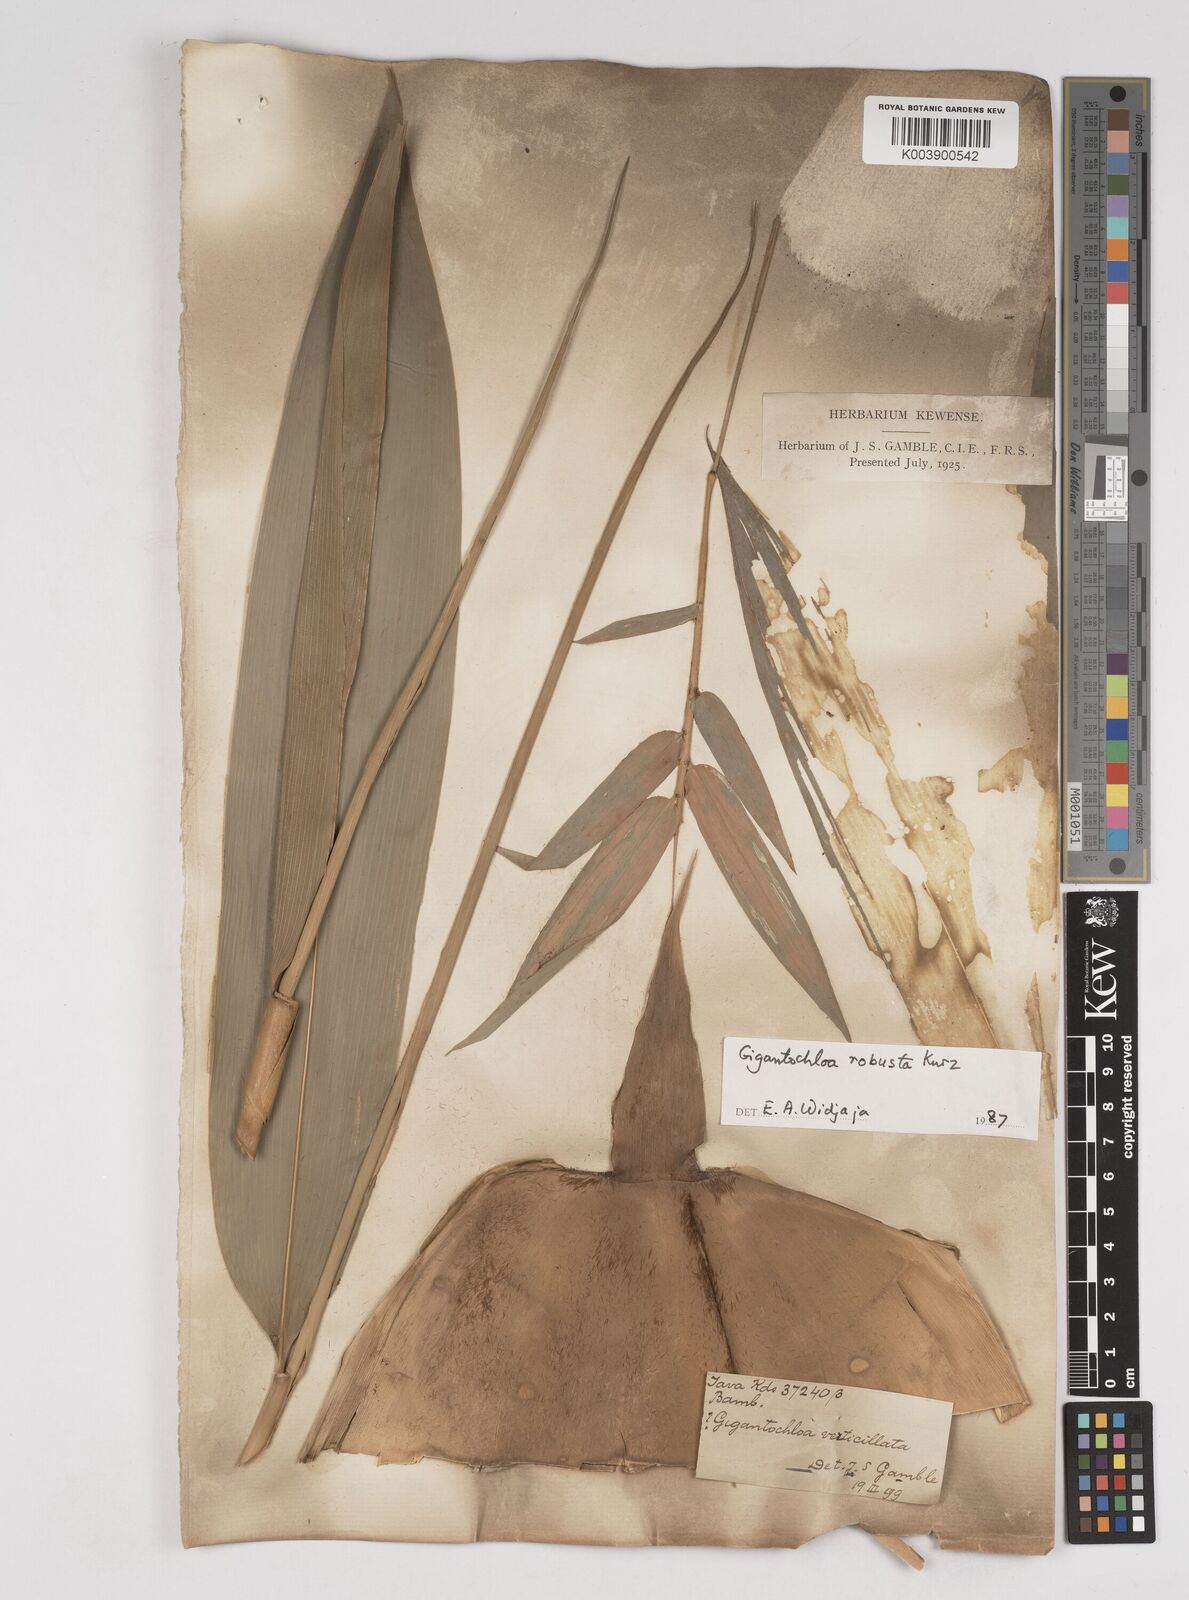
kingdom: Plantae
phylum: Tracheophyta
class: Liliopsida
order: Poales
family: Poaceae
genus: Gigantochloa
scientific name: Gigantochloa robusta
